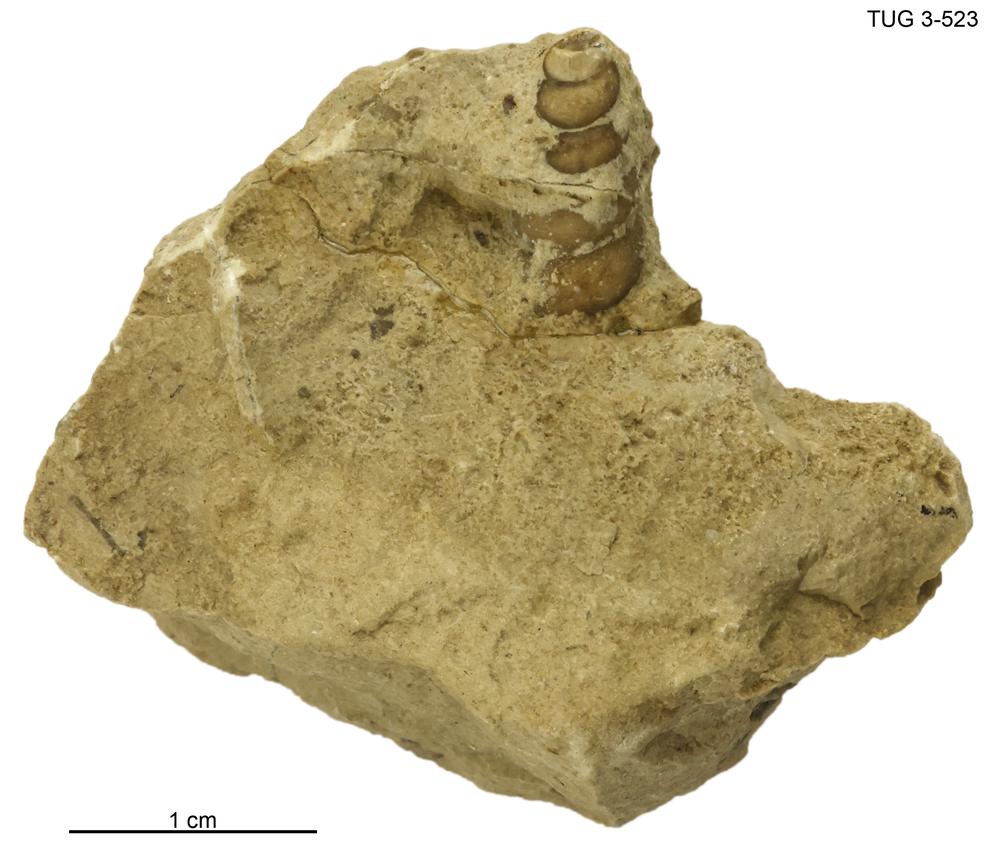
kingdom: Animalia
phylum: Mollusca
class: Gastropoda
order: Pleurotomariida
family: Murchisoniidae
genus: Murchisonia
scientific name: Murchisonia scrobiculata
